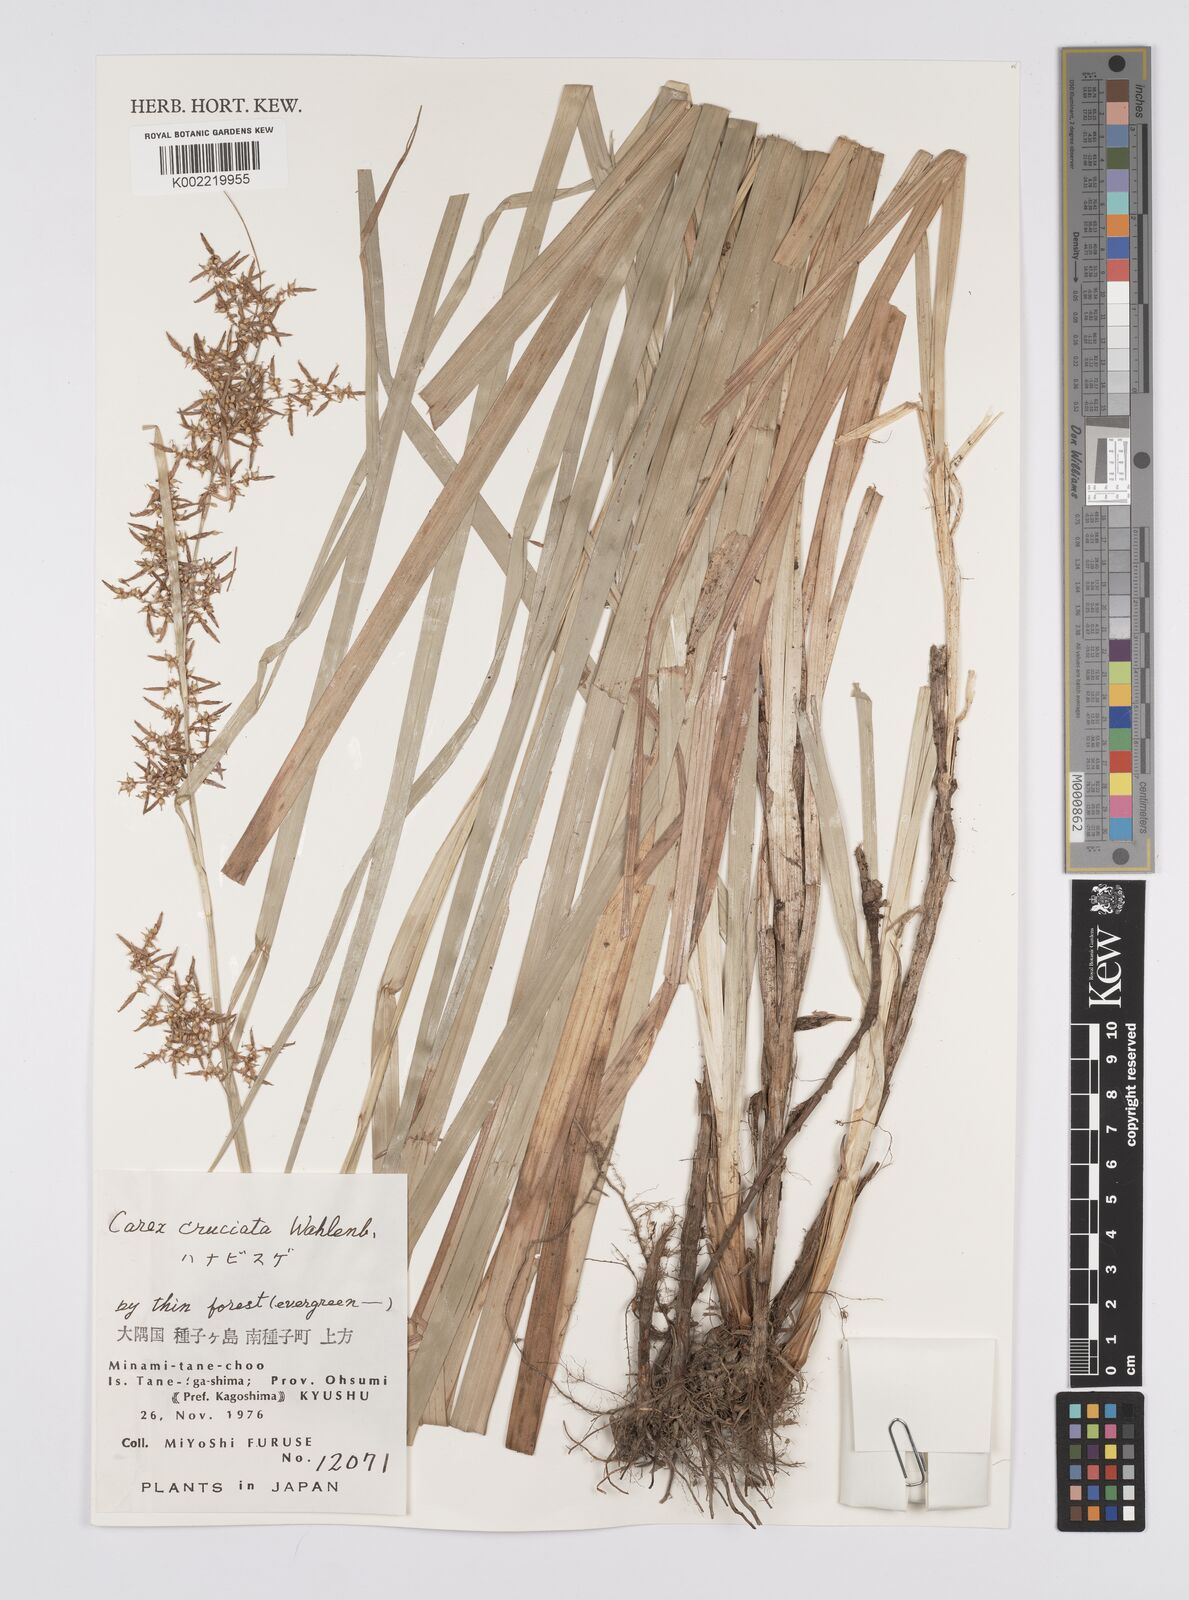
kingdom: Plantae
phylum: Tracheophyta
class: Liliopsida
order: Poales
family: Cyperaceae
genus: Carex
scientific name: Carex cruciata
